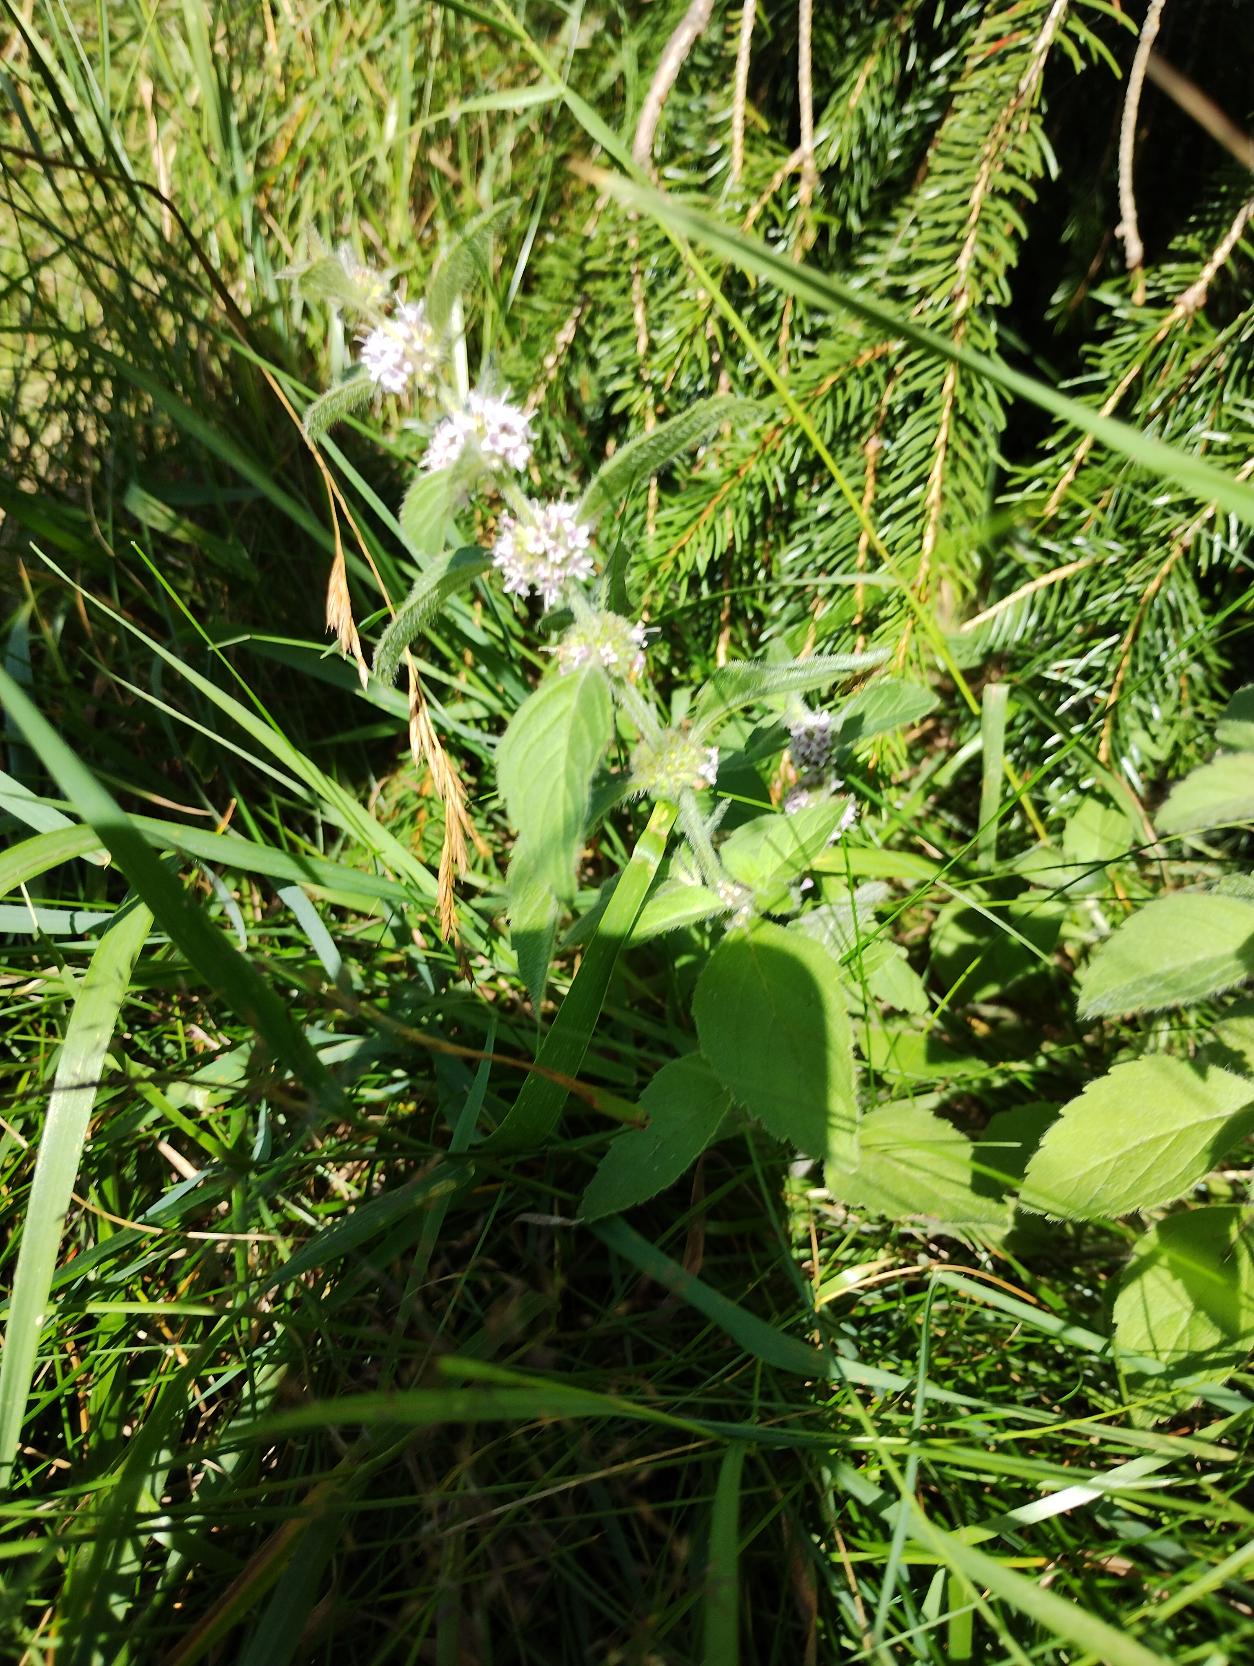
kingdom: Plantae
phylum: Tracheophyta
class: Magnoliopsida
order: Lamiales
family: Lamiaceae
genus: Mentha
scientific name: Mentha arvensis
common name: Ager-mynte
